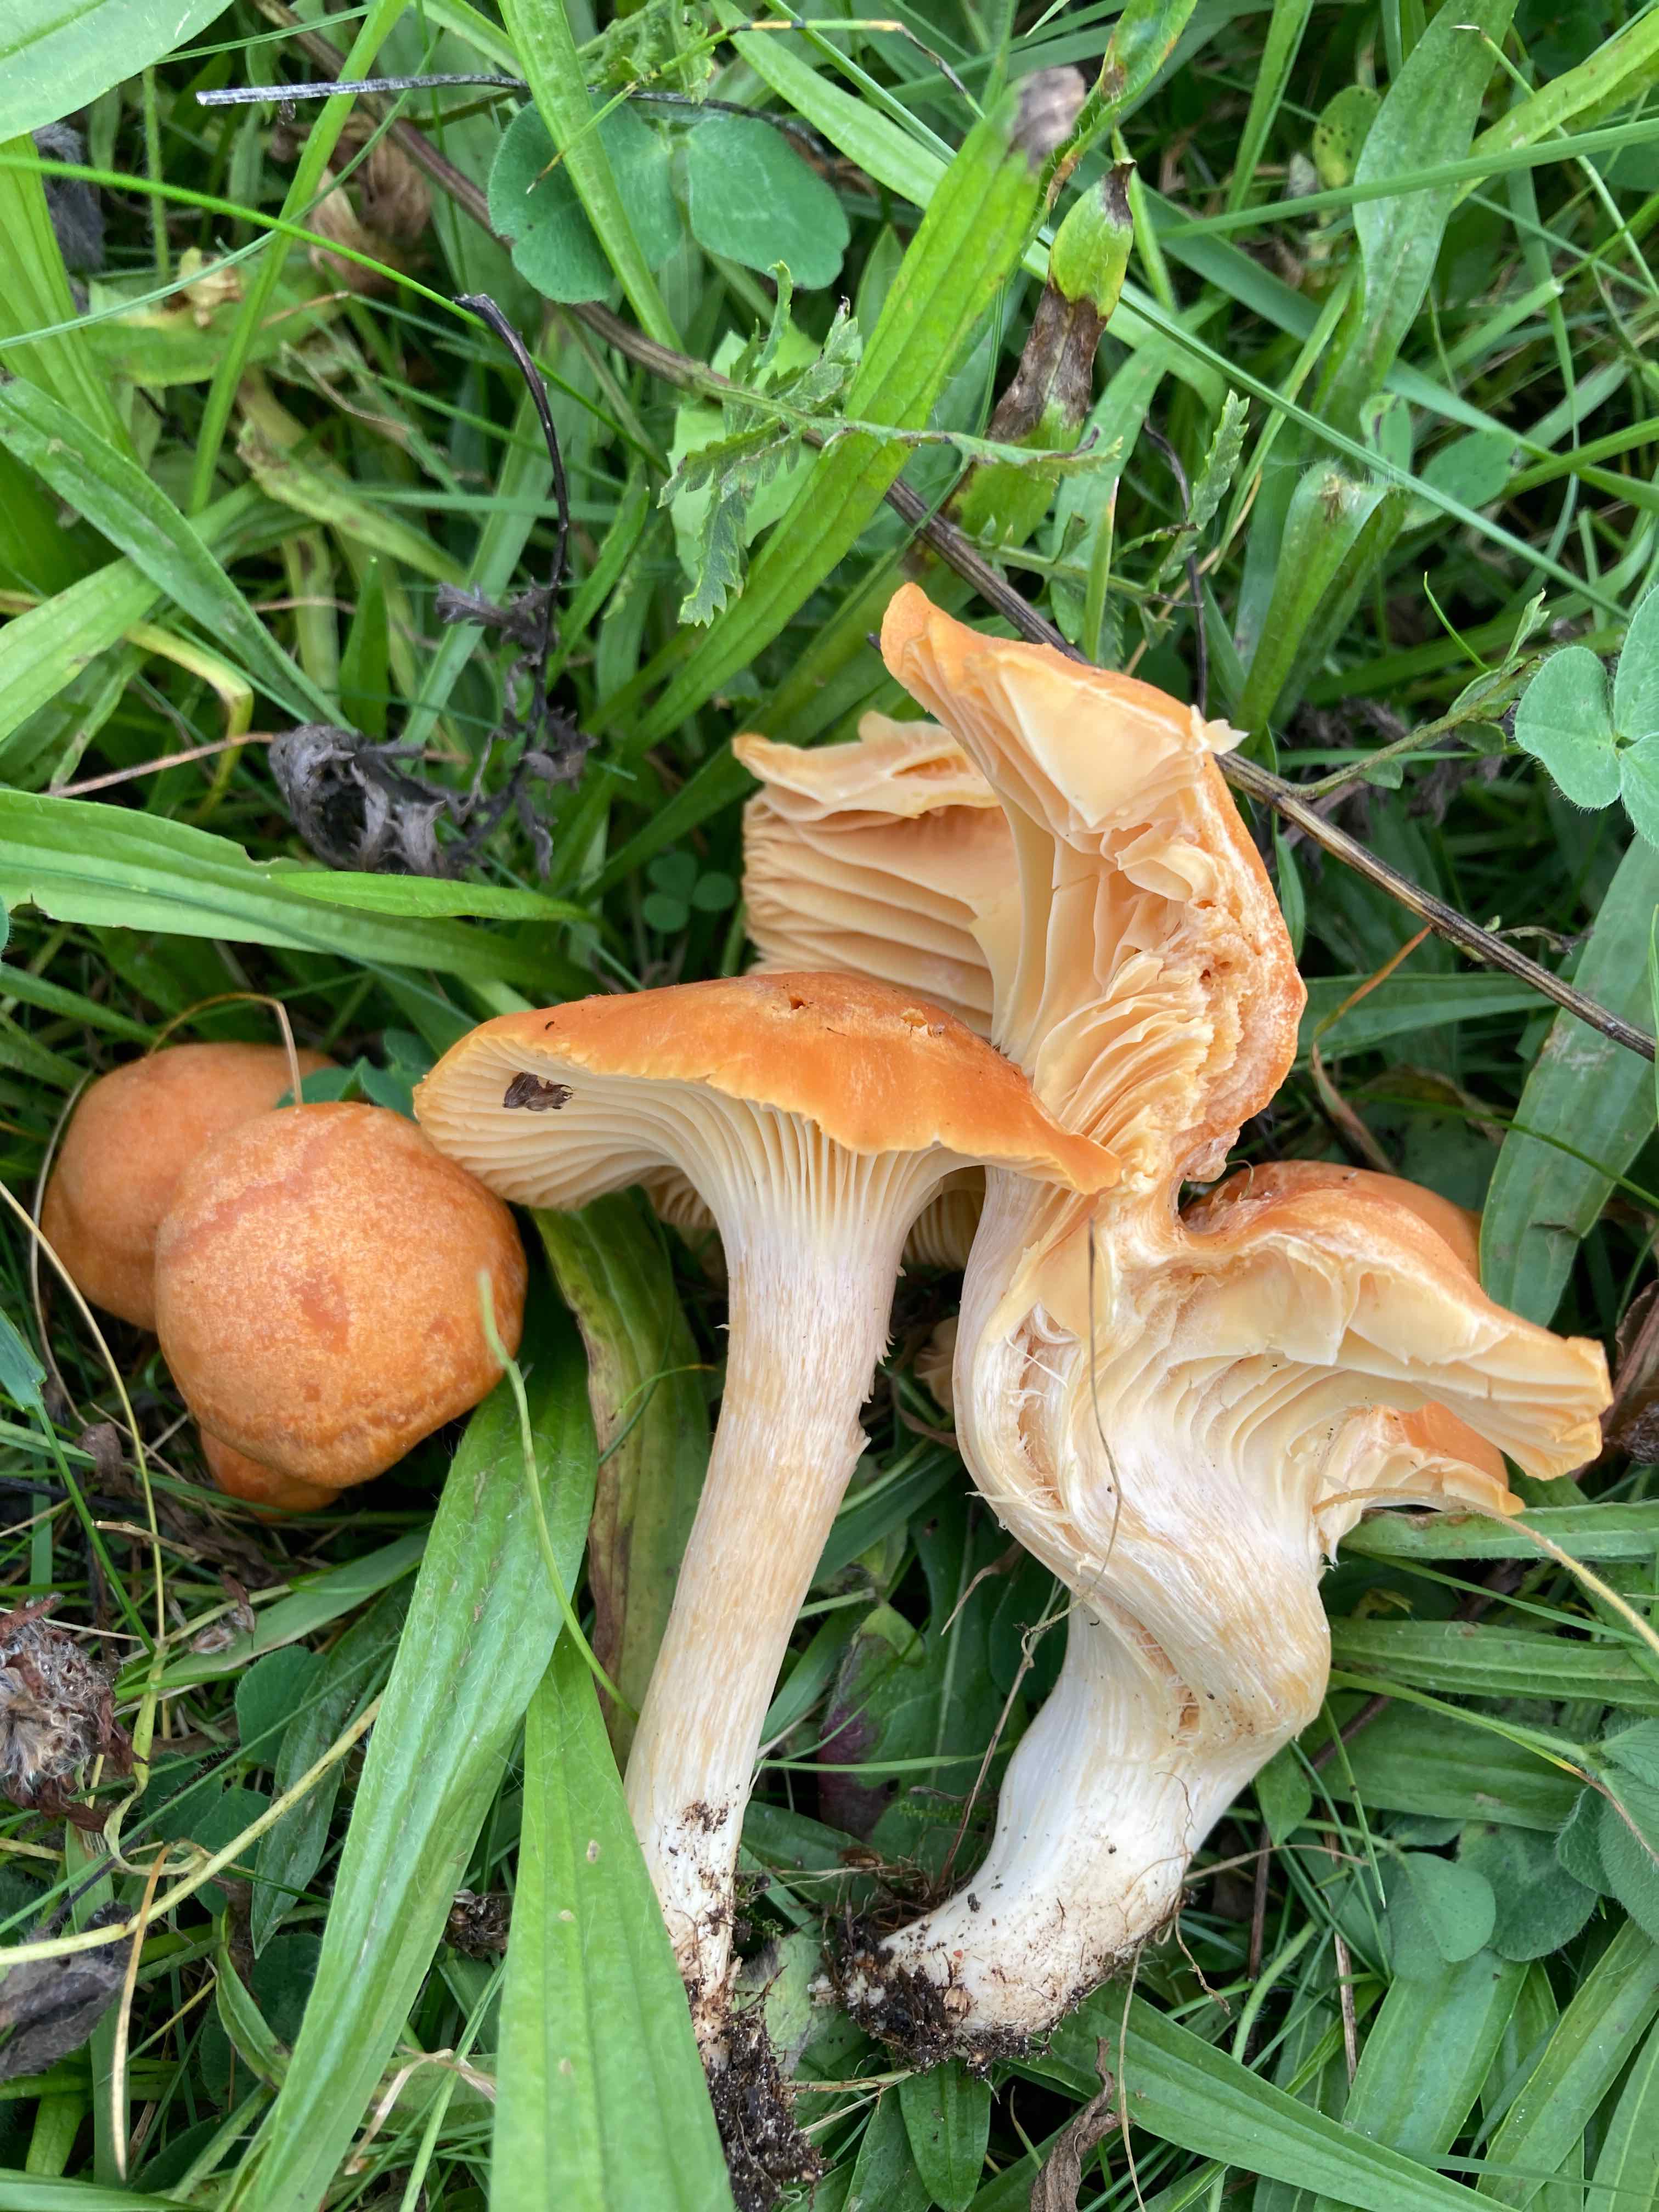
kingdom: Fungi
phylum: Basidiomycota
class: Agaricomycetes
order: Agaricales
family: Hygrophoraceae
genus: Cuphophyllus
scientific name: Cuphophyllus pratensis
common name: eng-vokshat
